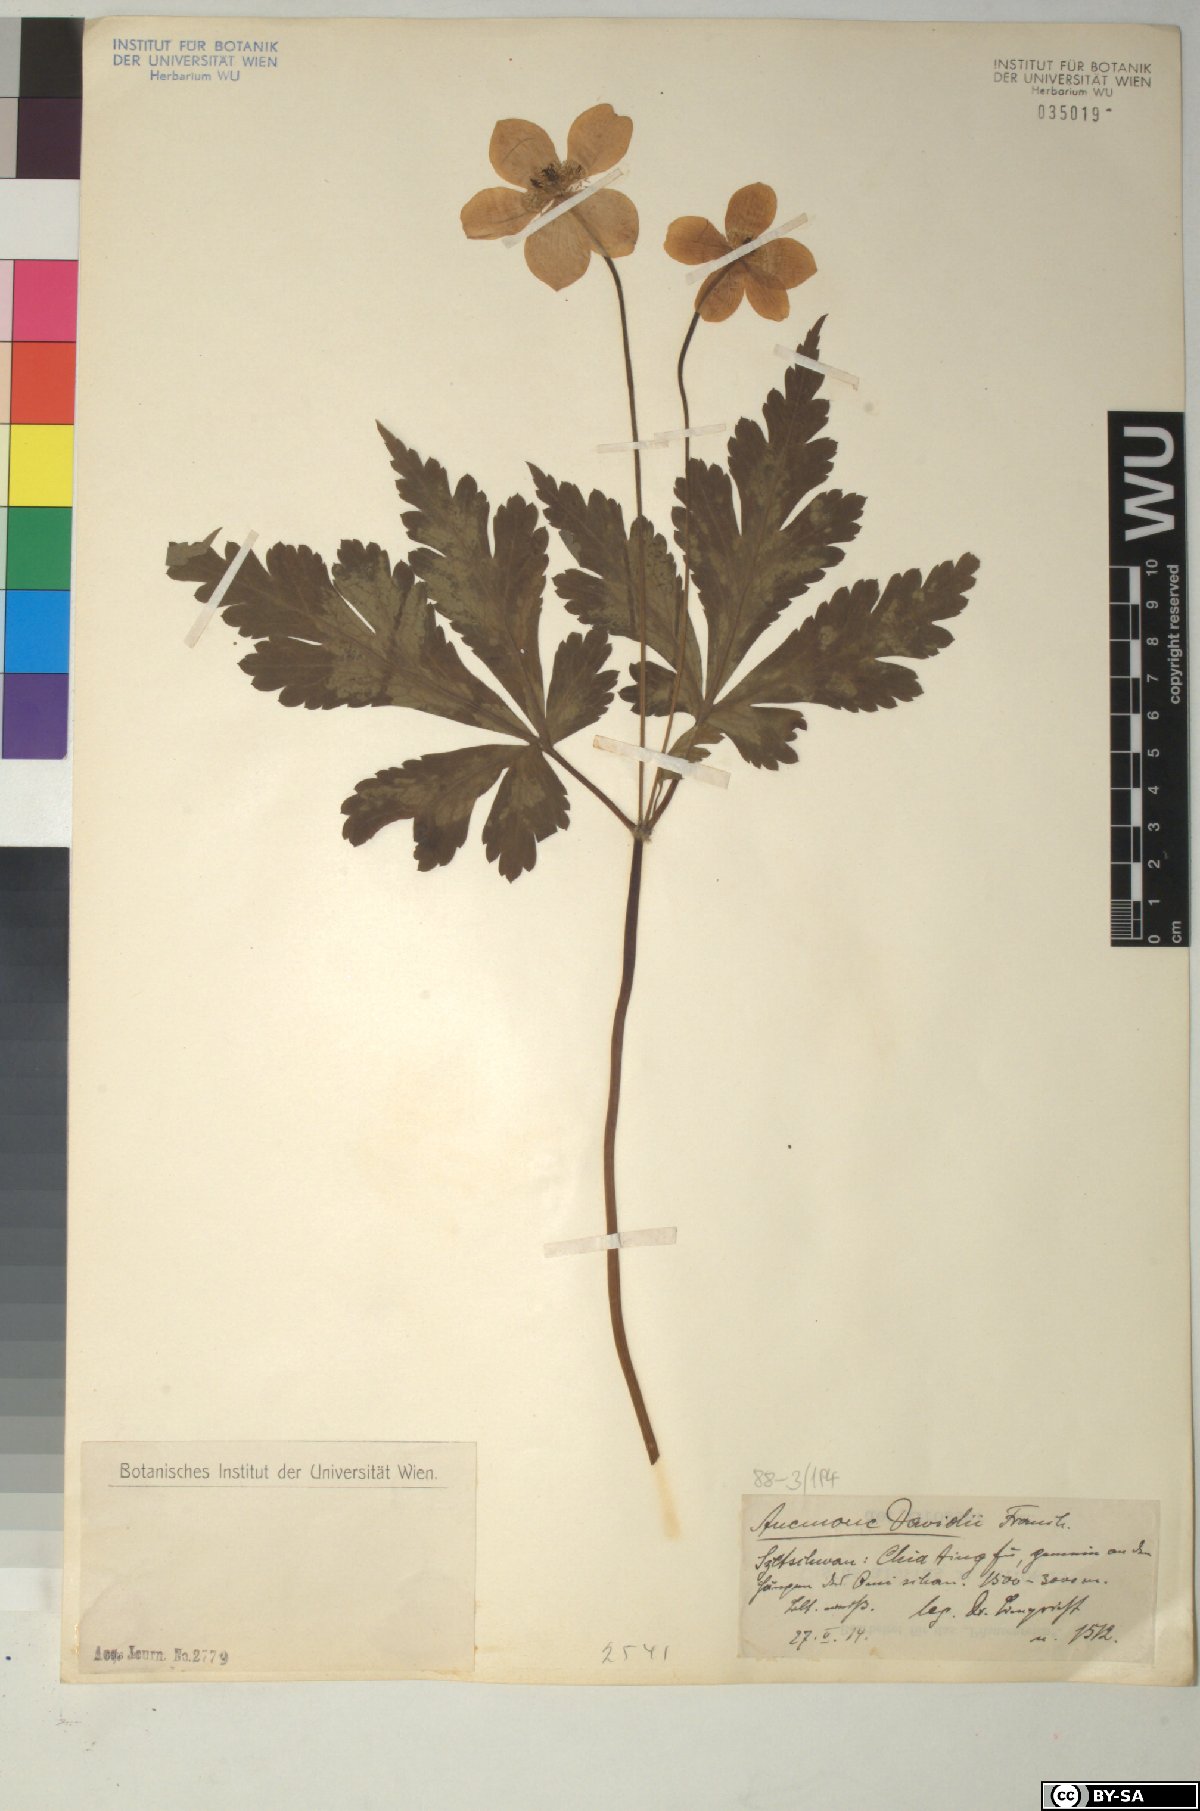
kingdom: Plantae
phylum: Tracheophyta
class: Magnoliopsida
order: Ranunculales
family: Ranunculaceae
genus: Anemone
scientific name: Anemone davidii
